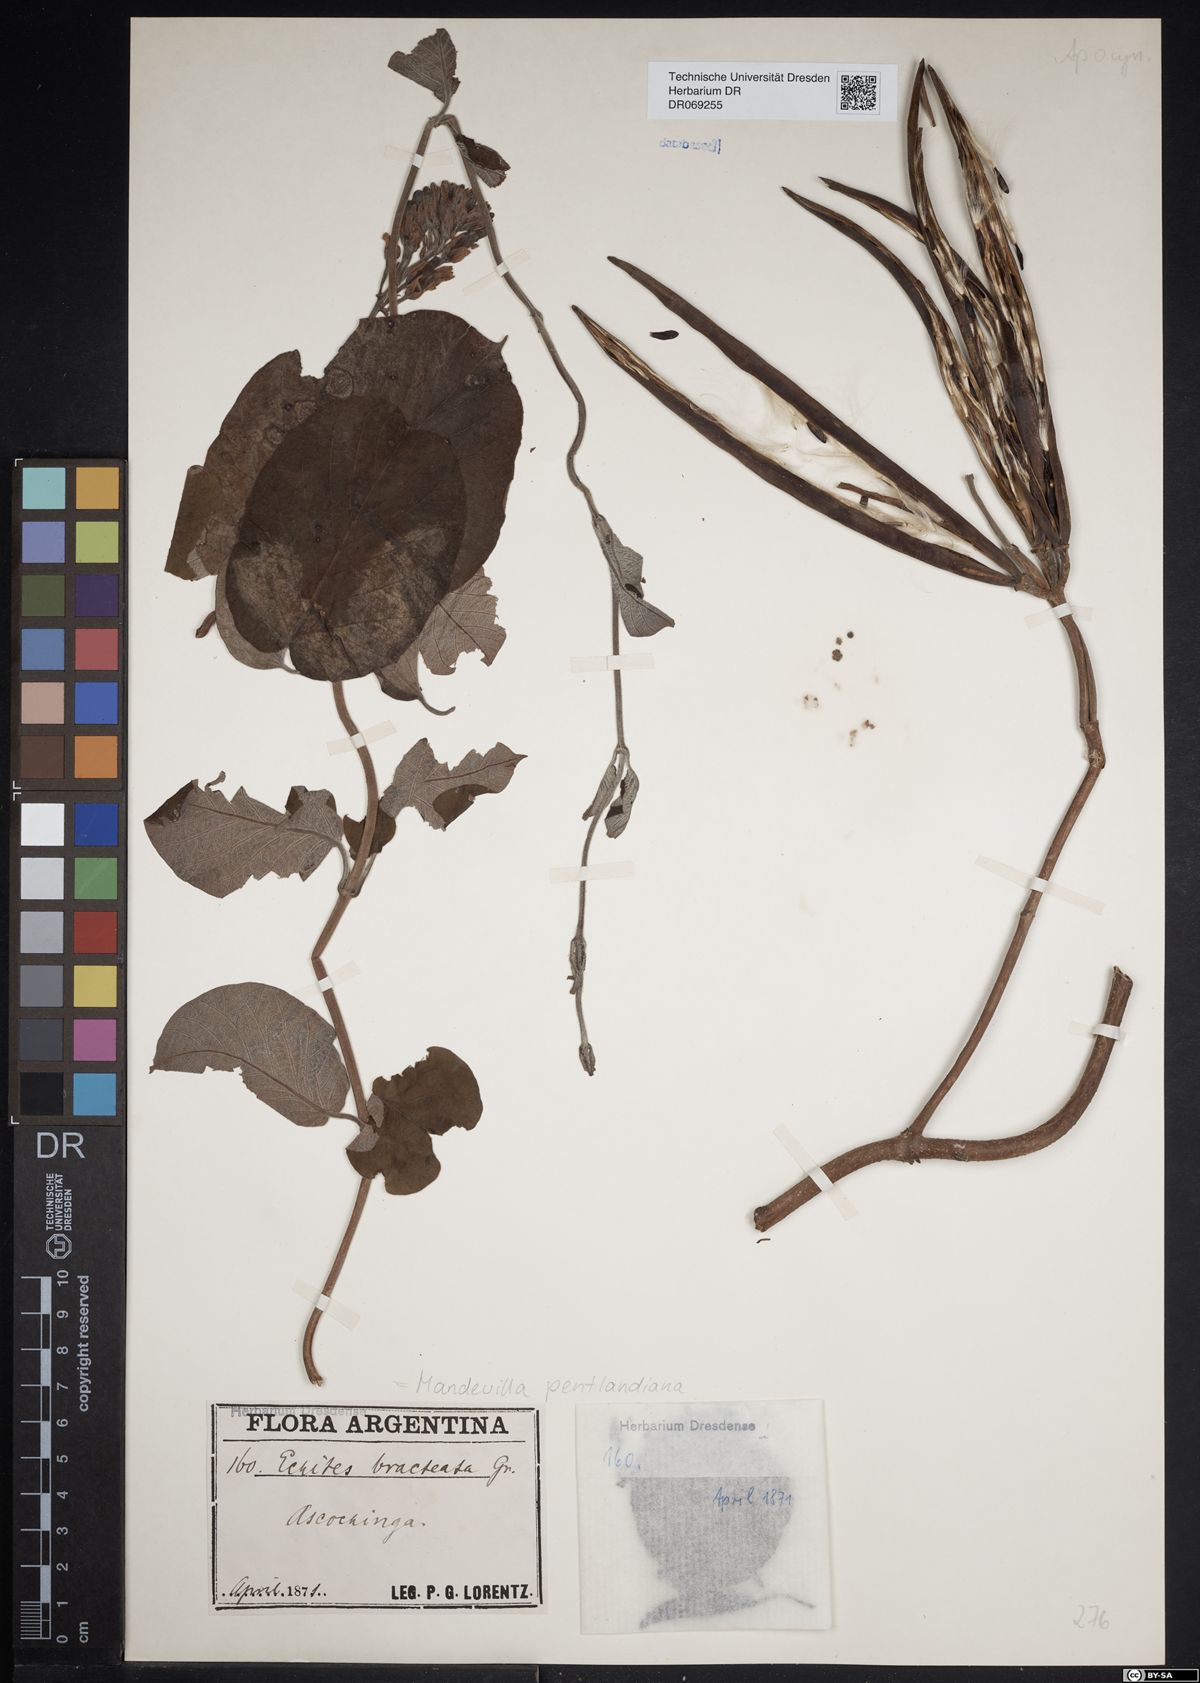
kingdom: Plantae
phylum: Tracheophyta
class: Magnoliopsida
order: Gentianales
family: Apocynaceae
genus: Mandevilla
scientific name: Mandevilla pentlandiana
